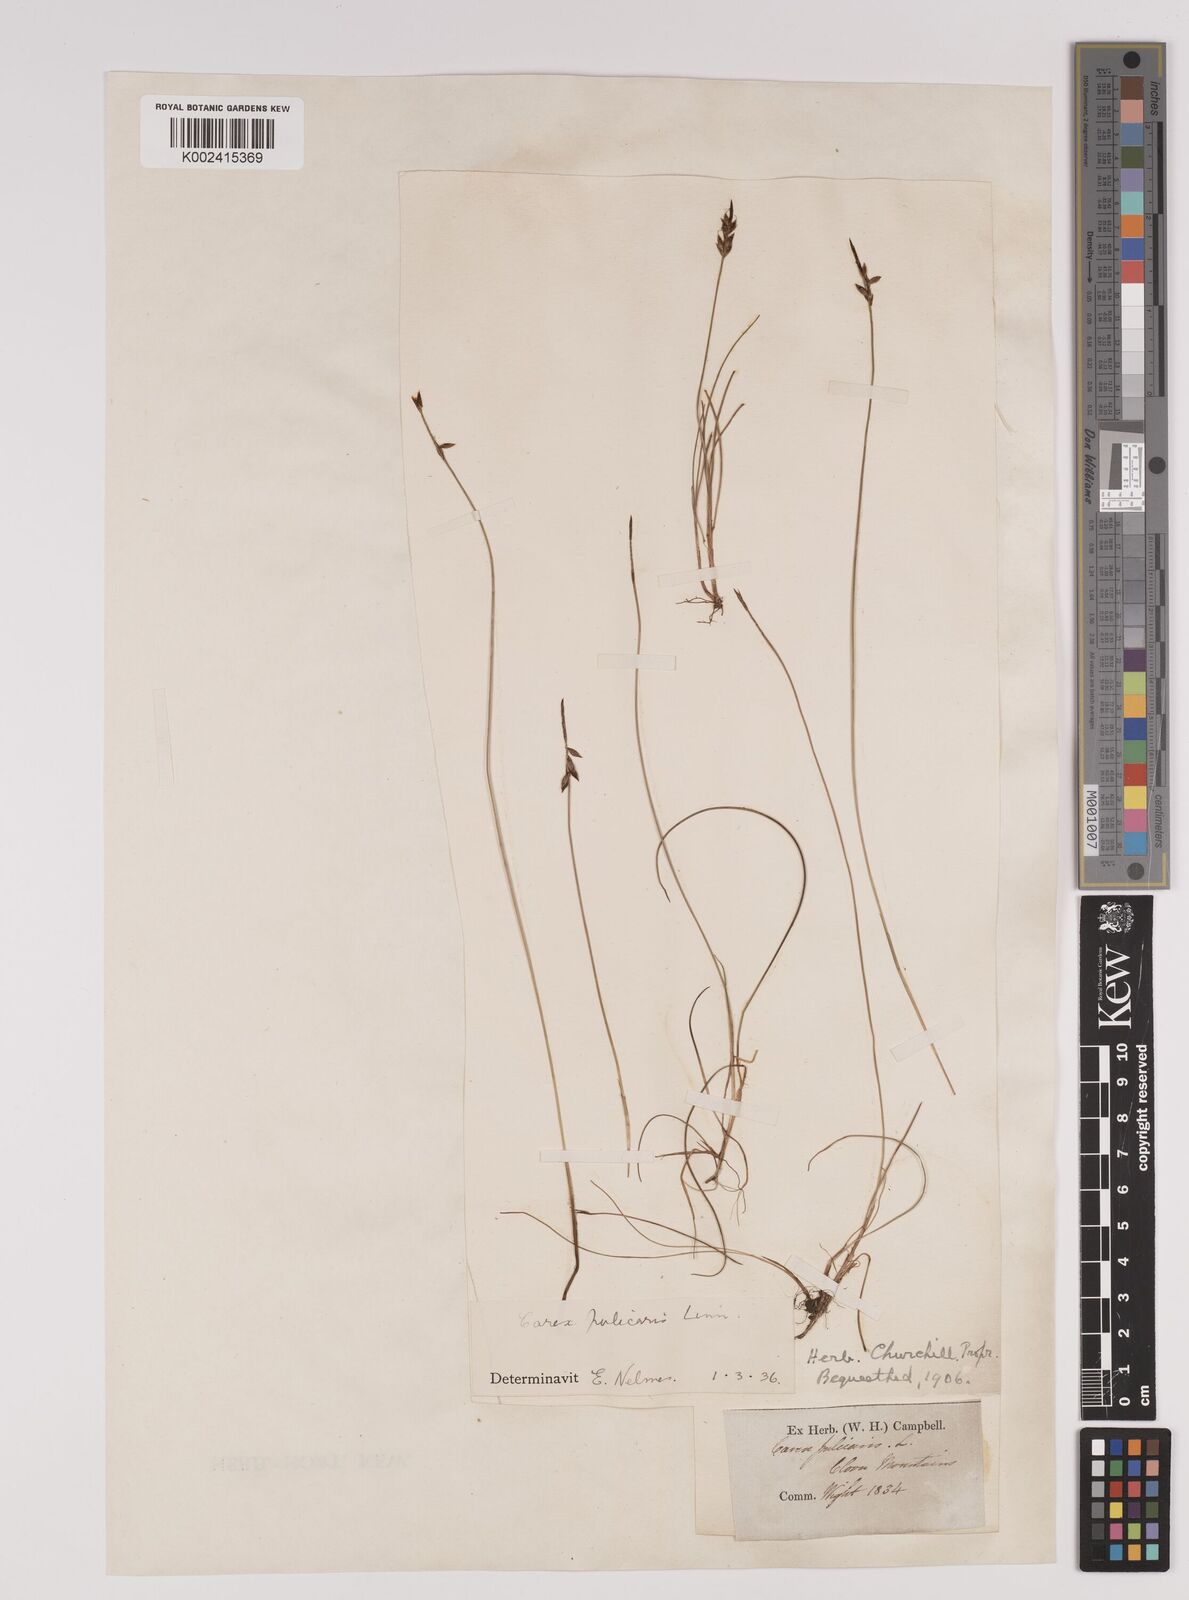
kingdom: Plantae
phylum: Tracheophyta
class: Liliopsida
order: Poales
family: Cyperaceae
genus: Carex
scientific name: Carex pulicaris
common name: Flea sedge
